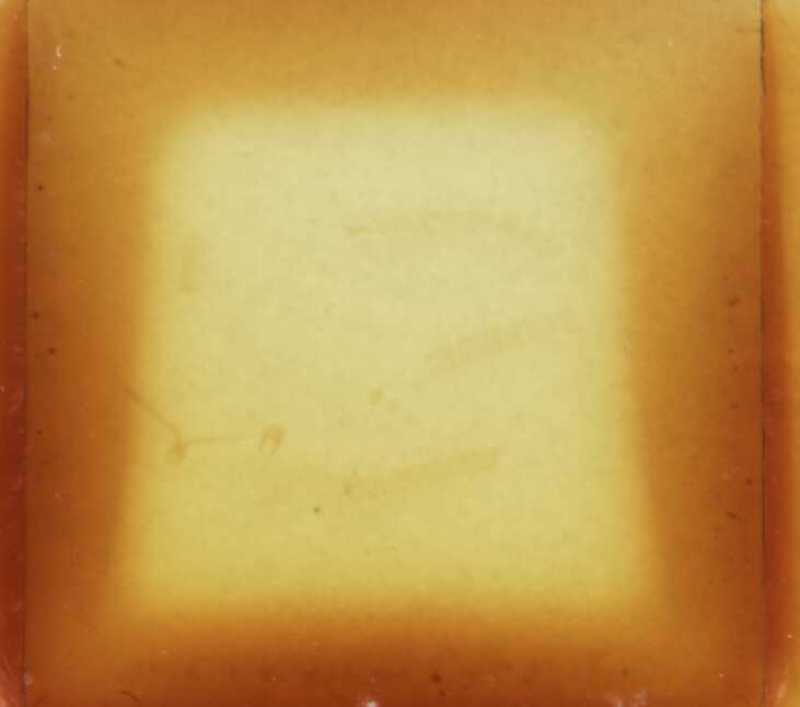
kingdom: Animalia
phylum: Arthropoda
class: Chilopoda
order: Geophilomorpha
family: Geophilidae
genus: Geophilus
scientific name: Geophilus flavus
